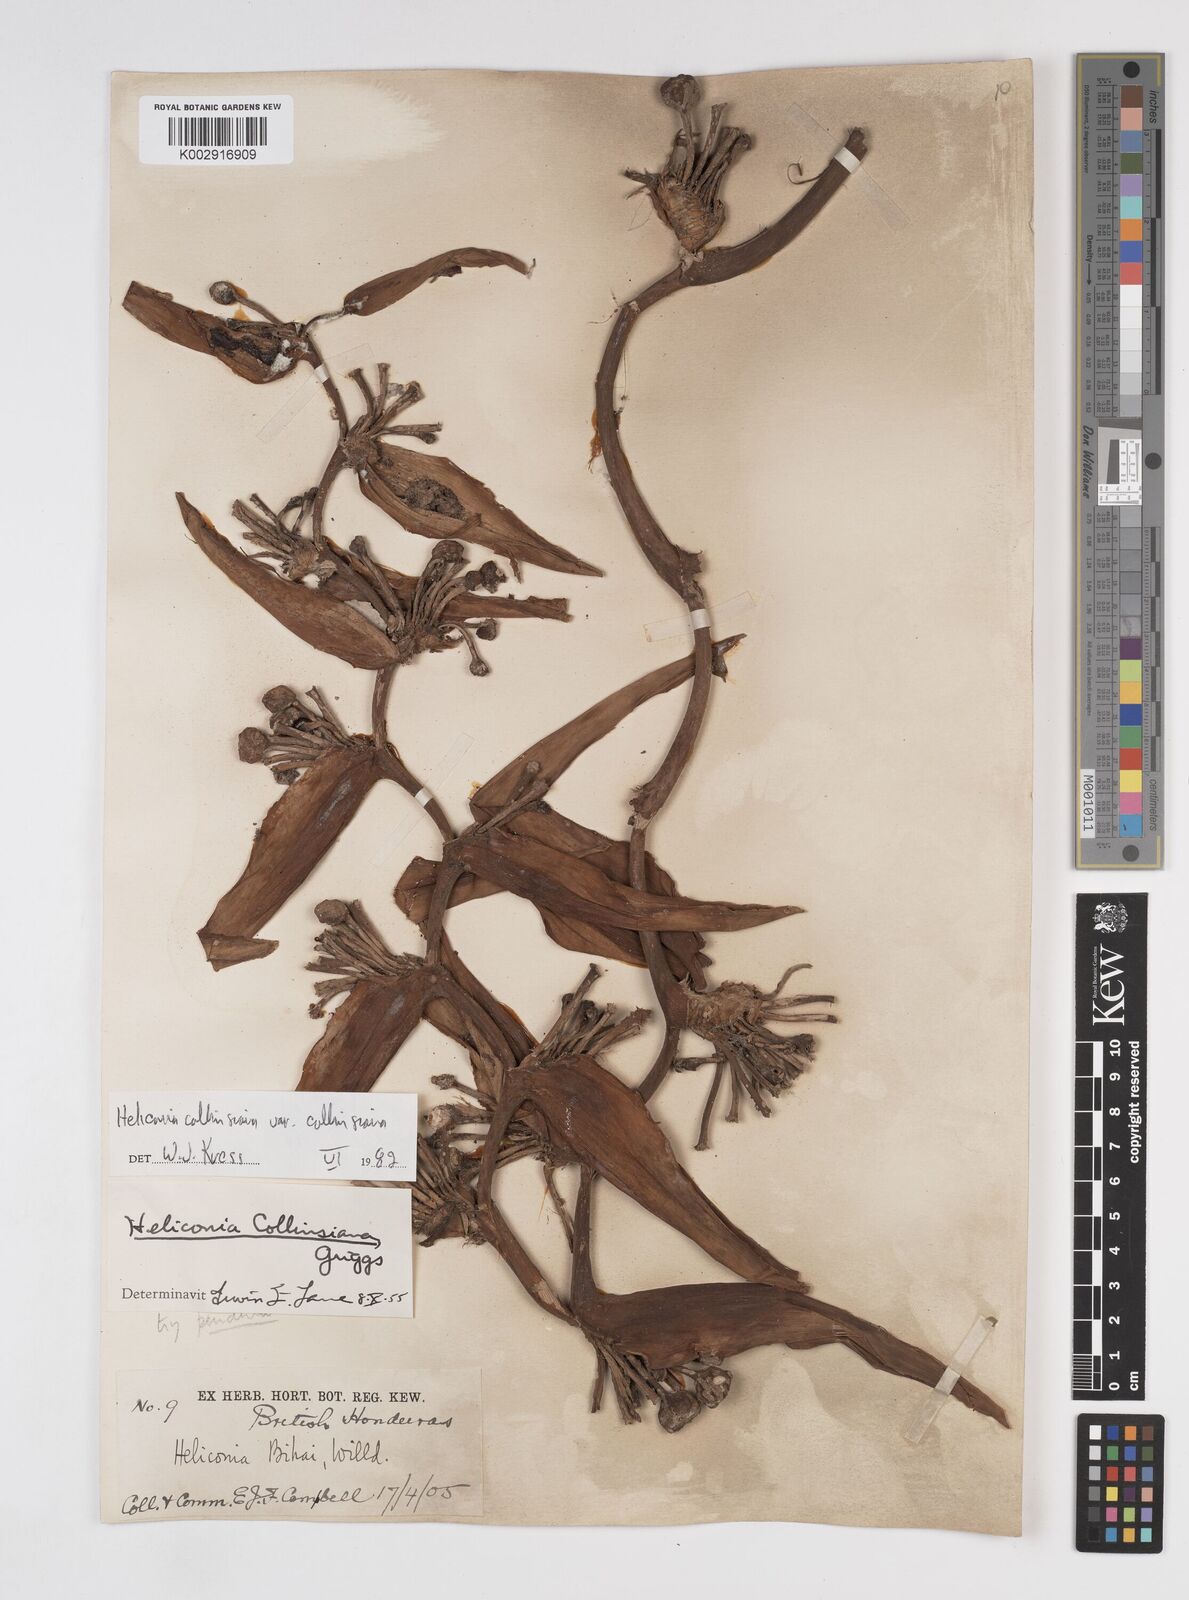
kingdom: Plantae
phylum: Tracheophyta
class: Liliopsida
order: Zingiberales
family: Heliconiaceae
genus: Heliconia
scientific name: Heliconia collinsiana
